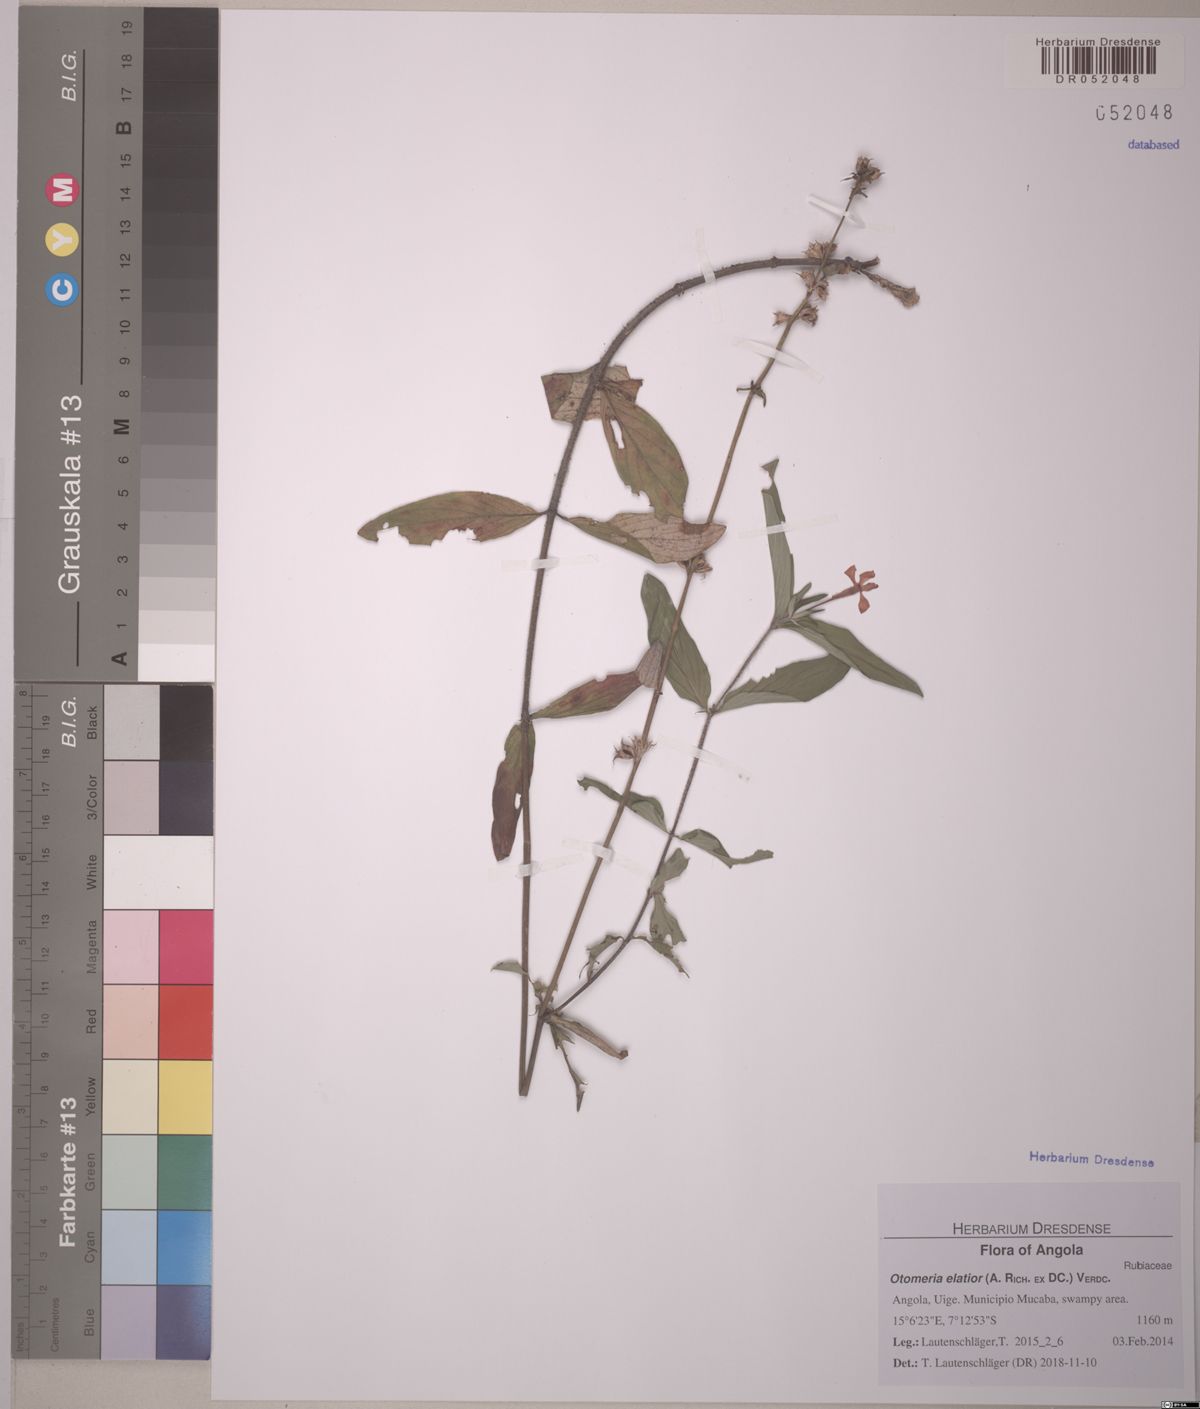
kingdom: Plantae
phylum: Tracheophyta
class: Magnoliopsida
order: Gentianales
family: Rubiaceae
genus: Otomeria
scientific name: Otomeria elatior
